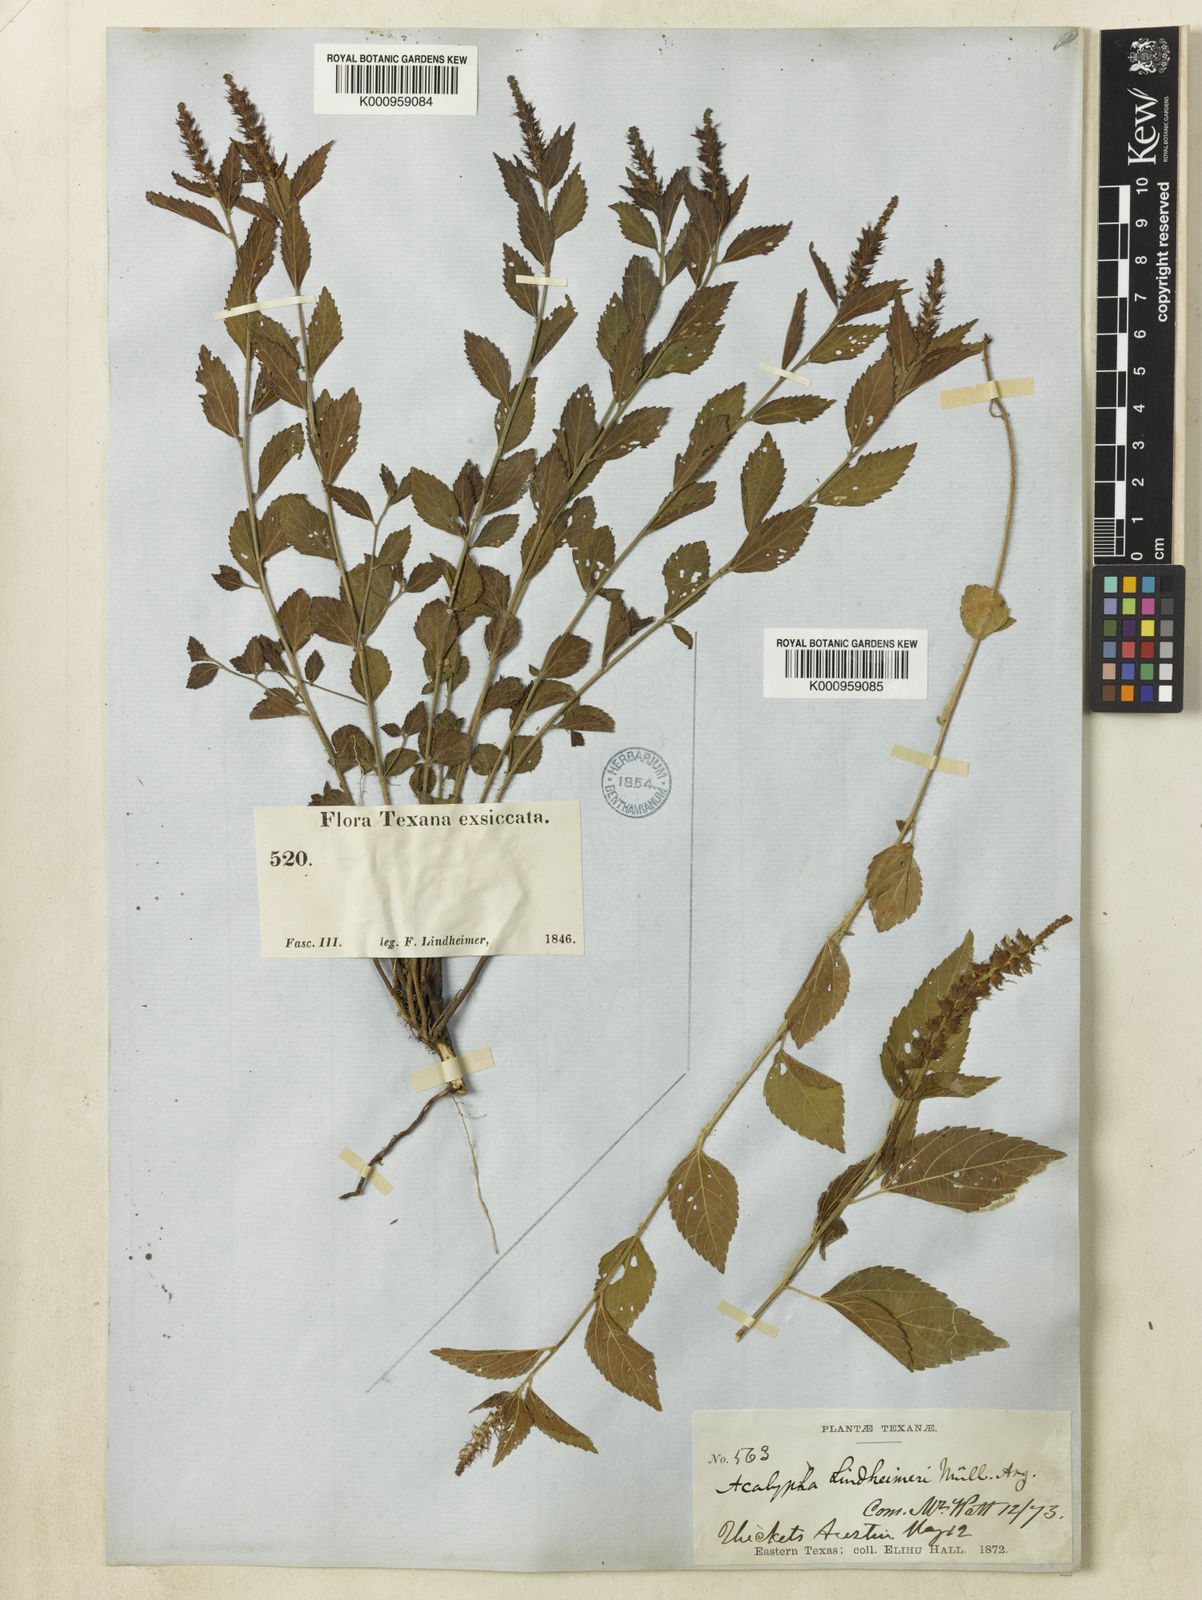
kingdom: Plantae
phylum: Tracheophyta
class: Magnoliopsida
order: Malpighiales
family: Euphorbiaceae
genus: Acalypha
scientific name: Acalypha phleoides
